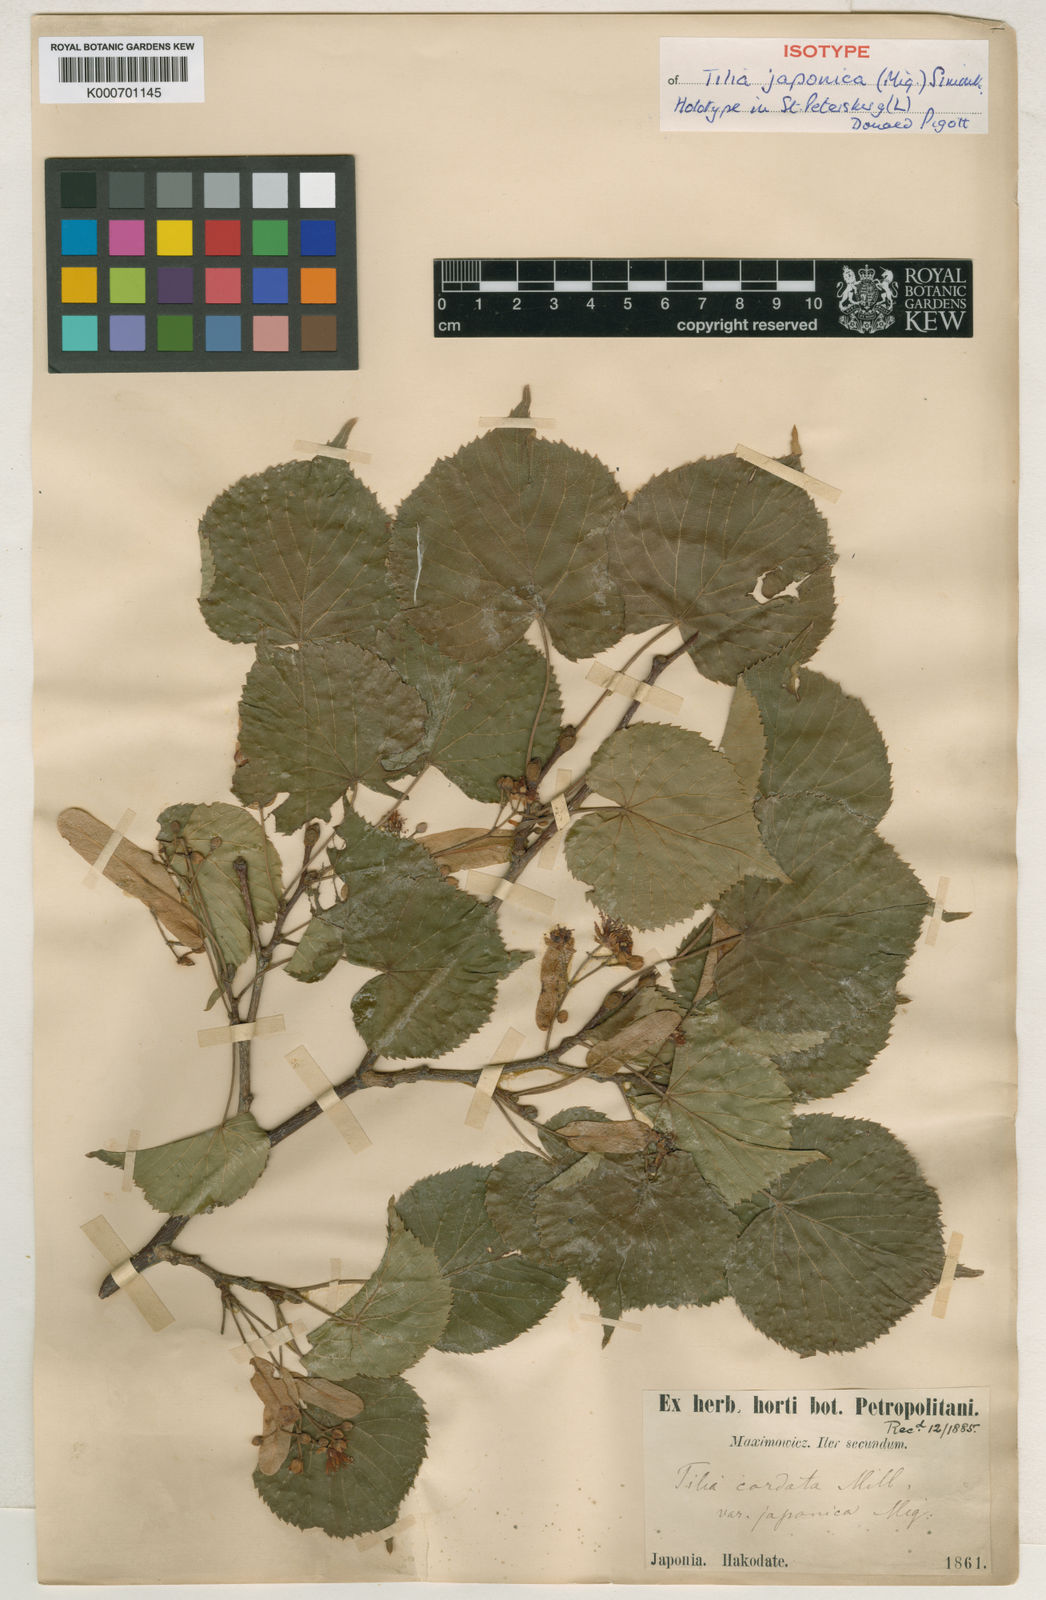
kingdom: Plantae
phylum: Tracheophyta
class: Magnoliopsida
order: Malvales
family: Malvaceae
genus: Tilia
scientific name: Tilia japonica
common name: Japanese lime
